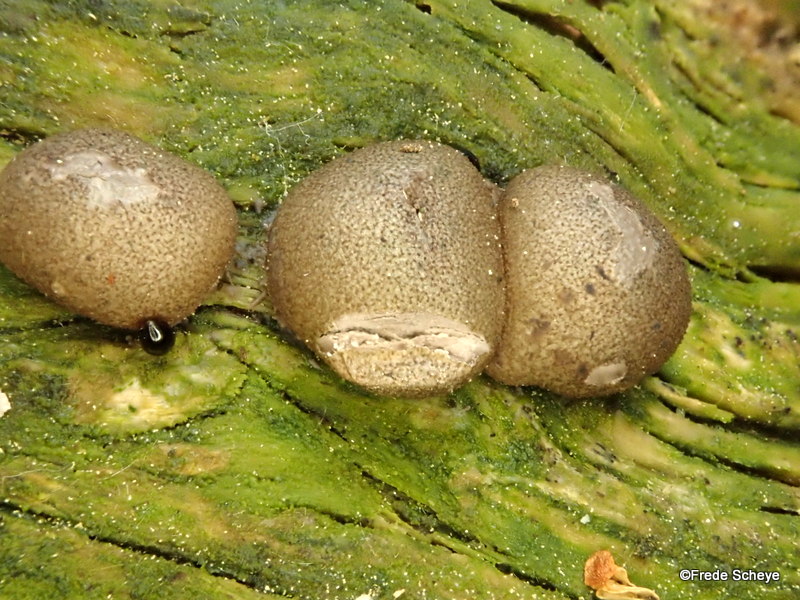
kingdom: Protozoa
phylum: Mycetozoa
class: Myxomycetes
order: Cribrariales
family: Tubiferaceae
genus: Lycogala
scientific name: Lycogala epidendrum
